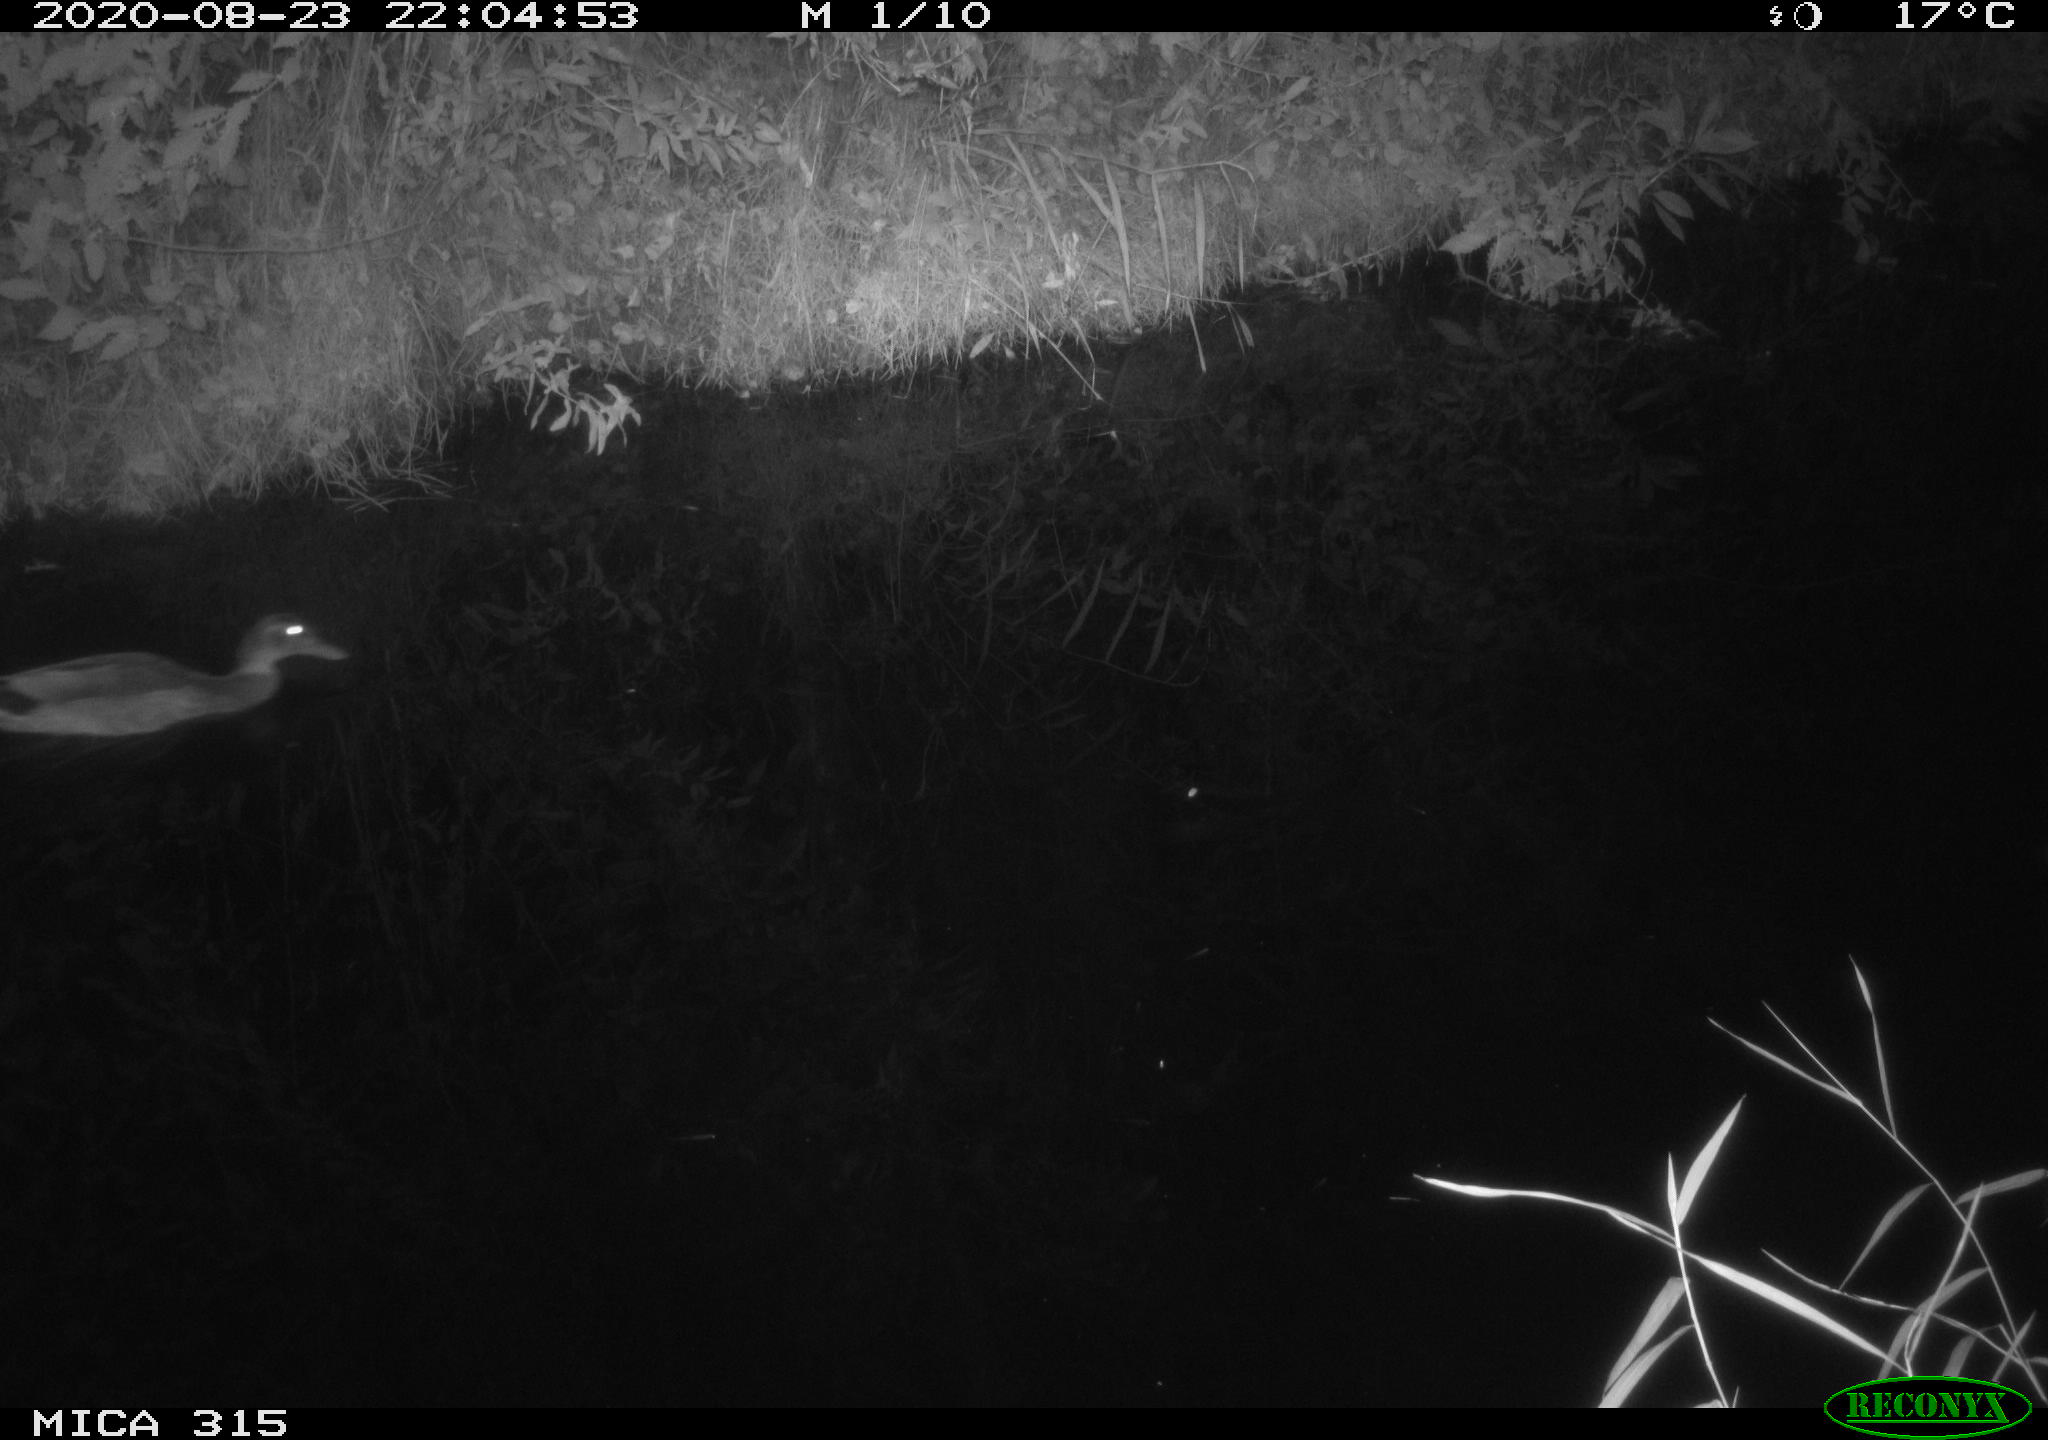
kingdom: Animalia
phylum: Chordata
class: Aves
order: Anseriformes
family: Anatidae
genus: Anas
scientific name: Anas platyrhynchos
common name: Mallard
